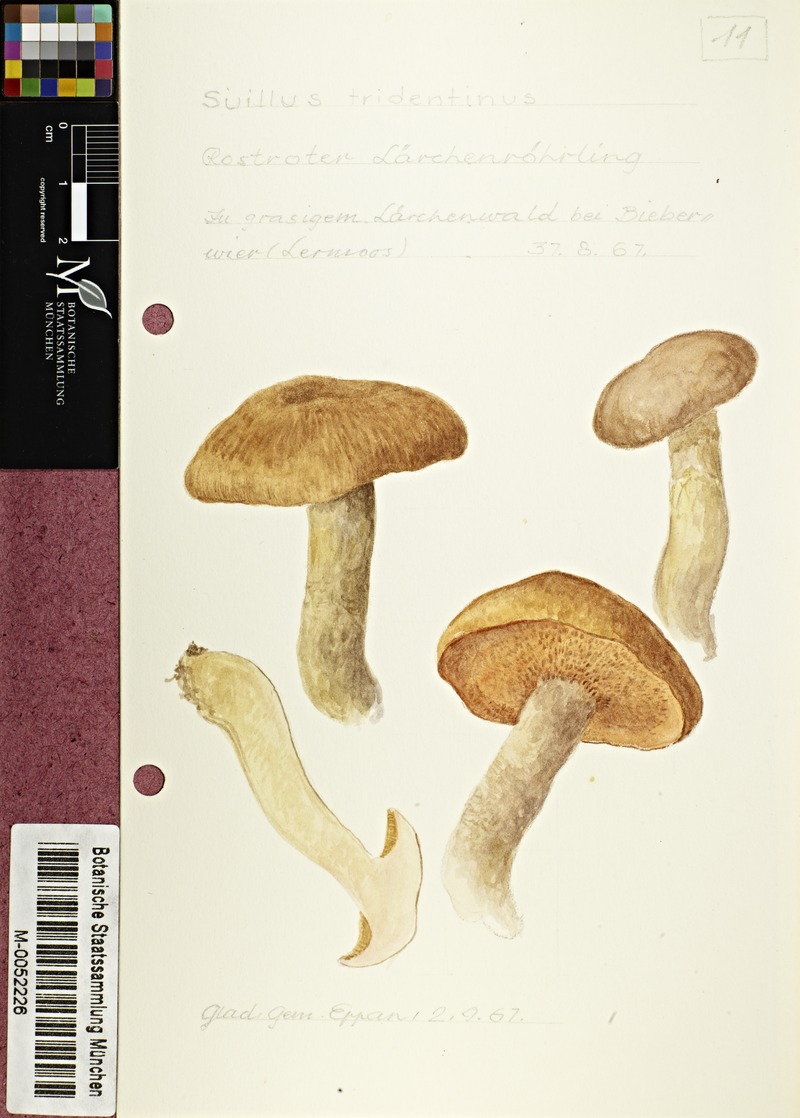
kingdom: Fungi
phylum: Basidiomycota
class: Agaricomycetes
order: Boletales
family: Suillaceae
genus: Suillus
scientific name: Suillus tridentinus
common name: Orange larch bolete
